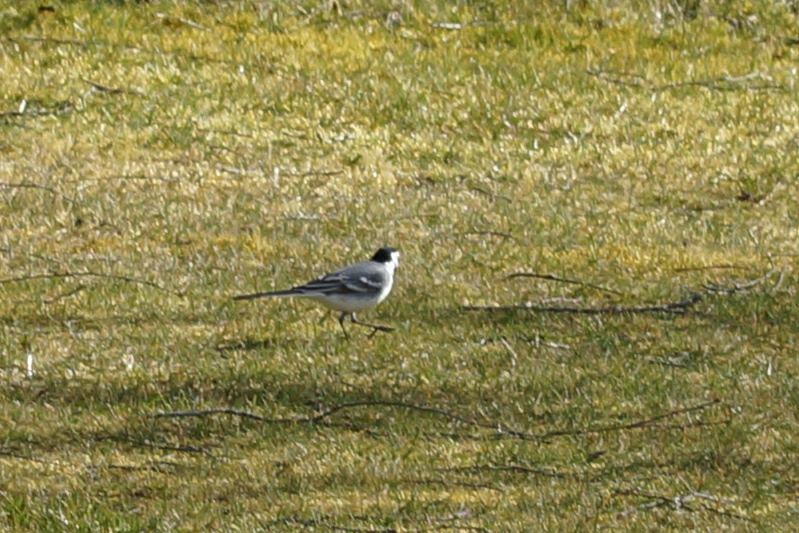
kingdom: Animalia
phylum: Chordata
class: Aves
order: Passeriformes
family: Motacillidae
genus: Motacilla
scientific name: Motacilla alba
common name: Hvid vipstjert
